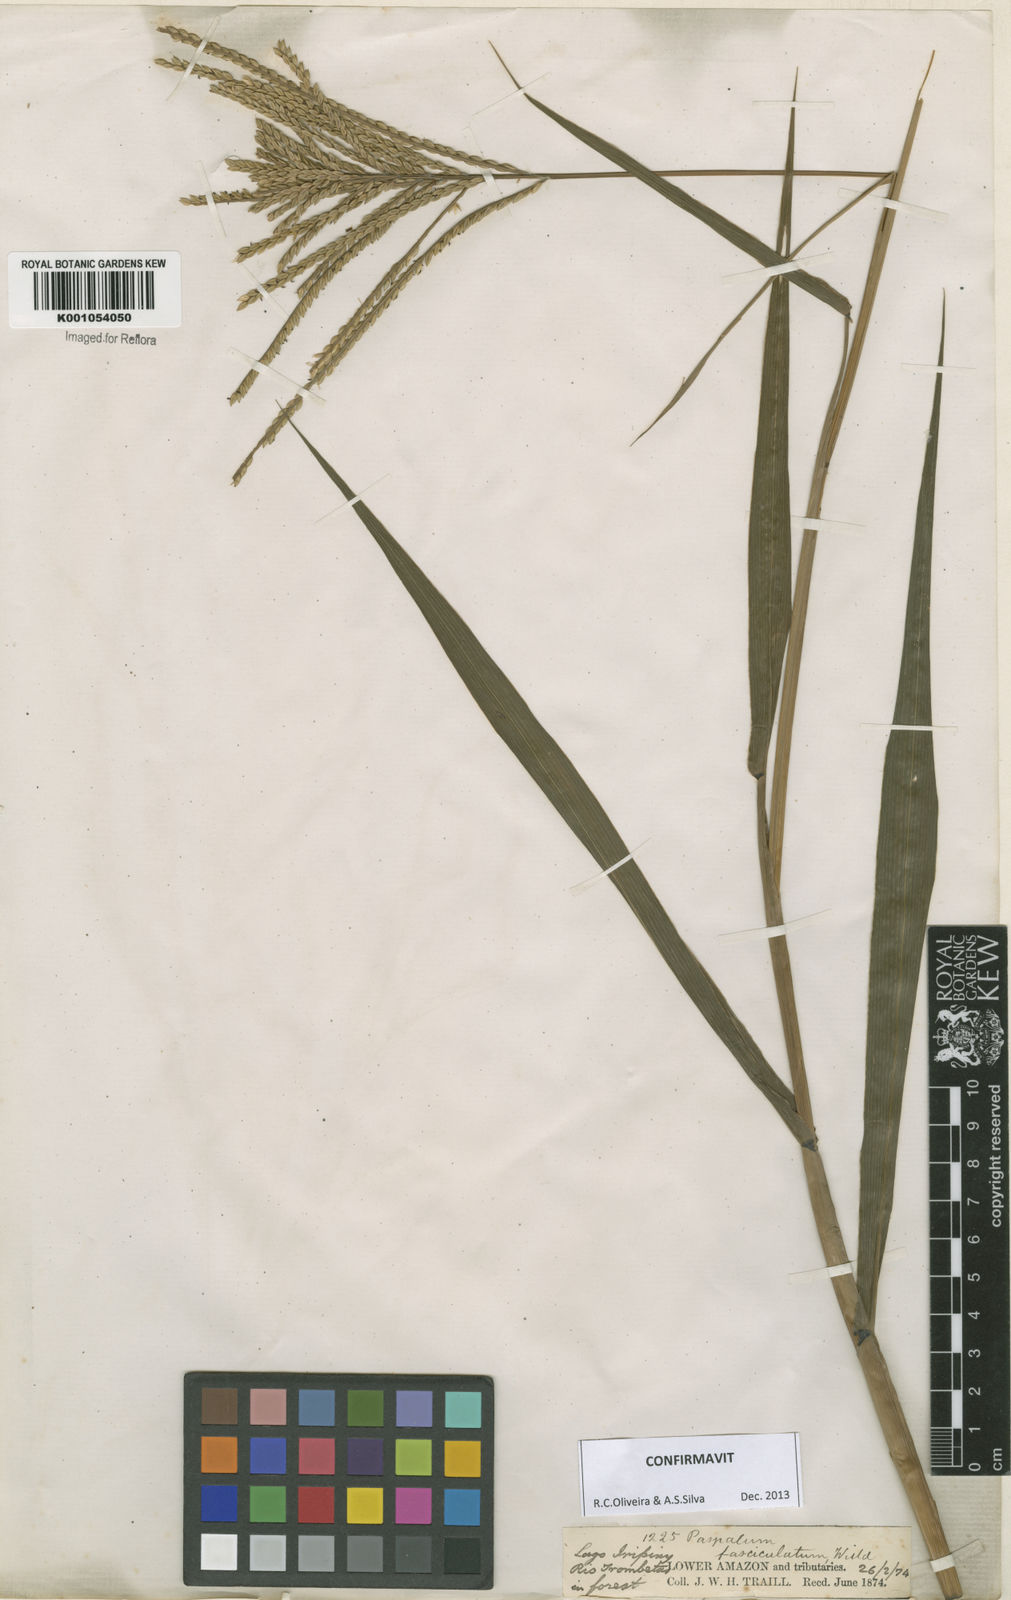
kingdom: Plantae
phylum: Tracheophyta
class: Liliopsida
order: Poales
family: Poaceae
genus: Paspalum
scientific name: Paspalum
